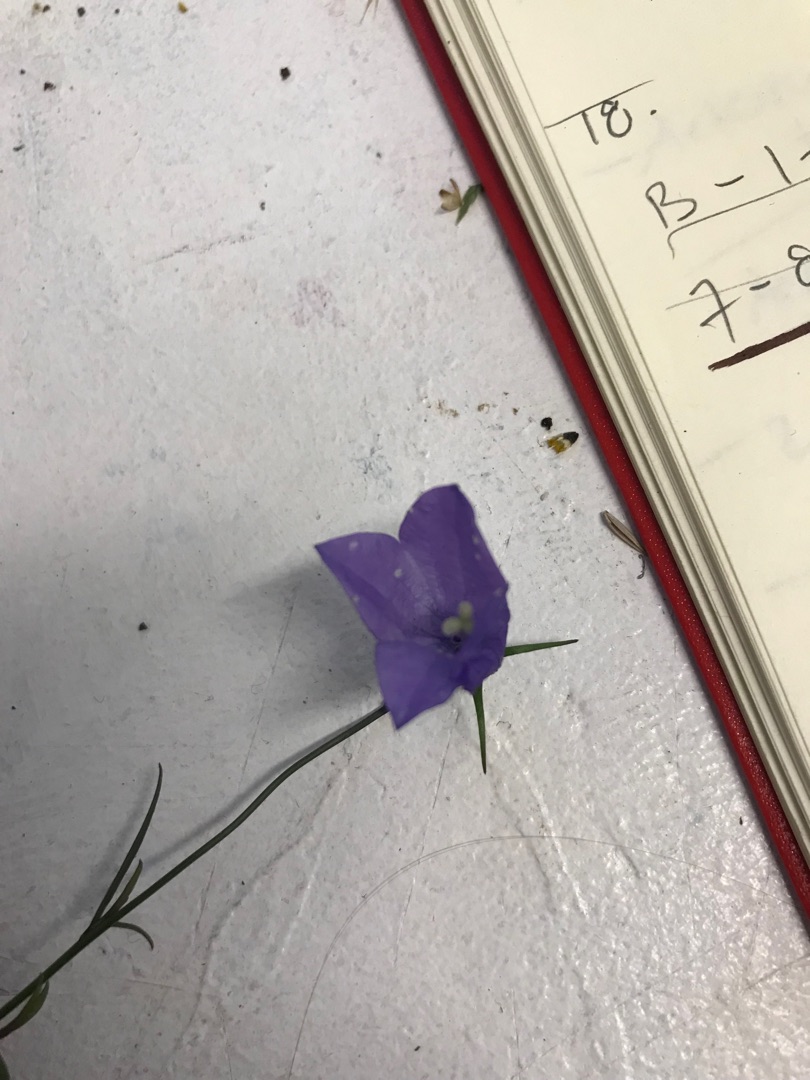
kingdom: Plantae
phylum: Tracheophyta
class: Magnoliopsida
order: Asterales
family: Campanulaceae
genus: Campanula
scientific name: Campanula rotundifolia
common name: Liden klokke
